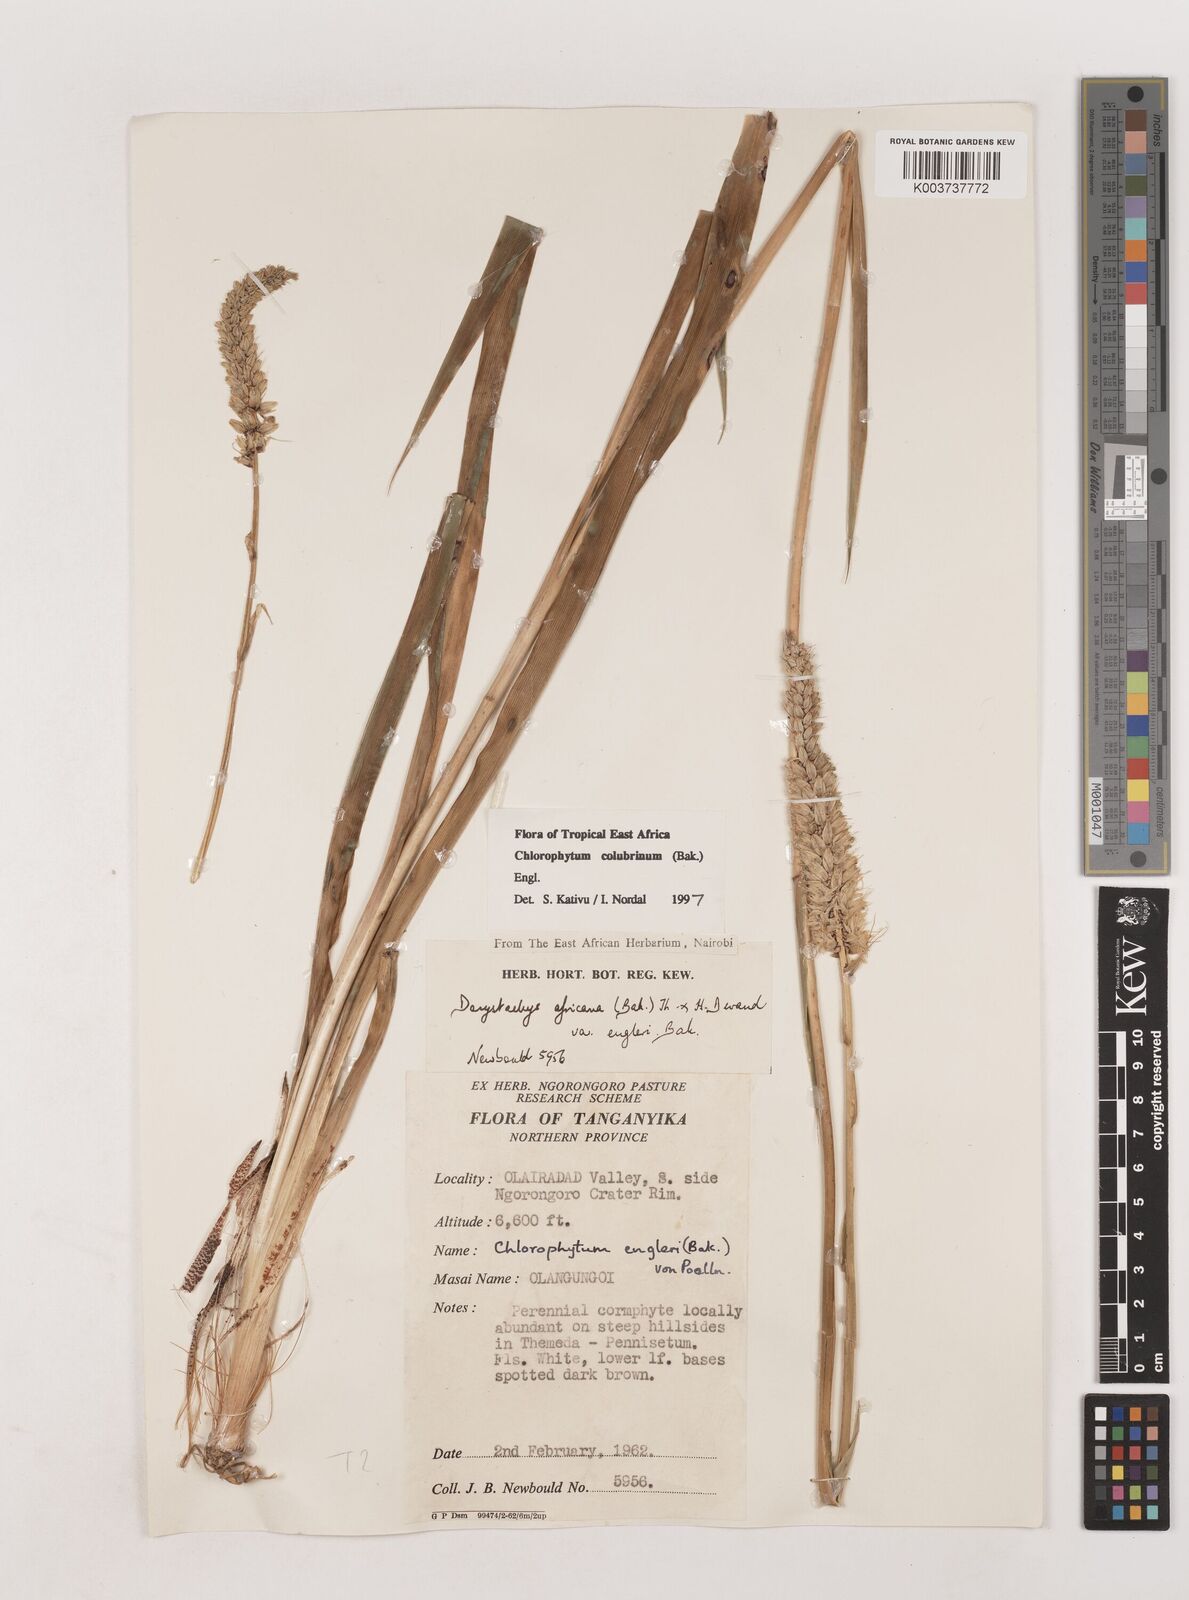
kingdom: Plantae
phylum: Tracheophyta
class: Liliopsida
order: Asparagales
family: Asparagaceae
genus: Chlorophytum
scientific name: Chlorophytum colubrinum
